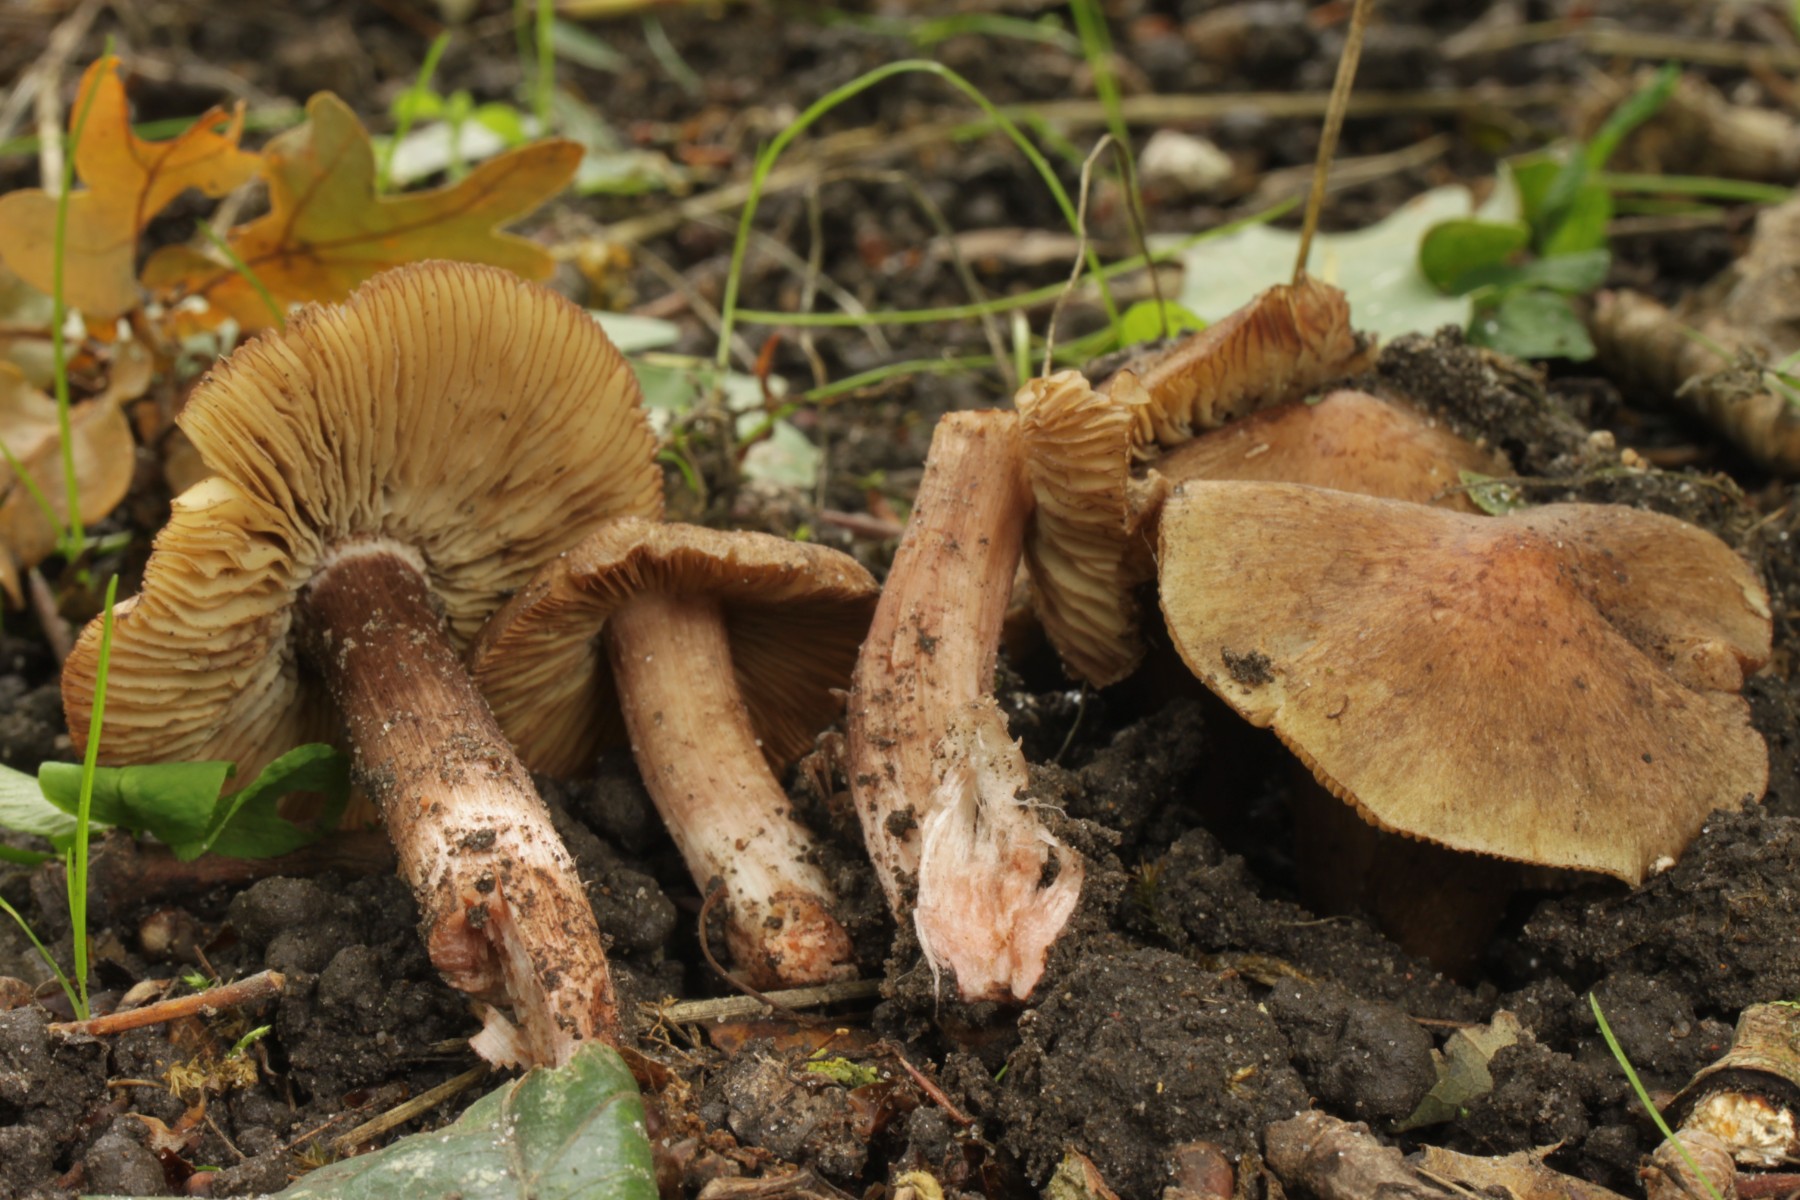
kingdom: Fungi
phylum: Basidiomycota
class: Agaricomycetes
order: Agaricales
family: Inocybaceae
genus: Inosperma
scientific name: Inosperma adaequatum
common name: vinrød trævlhat
